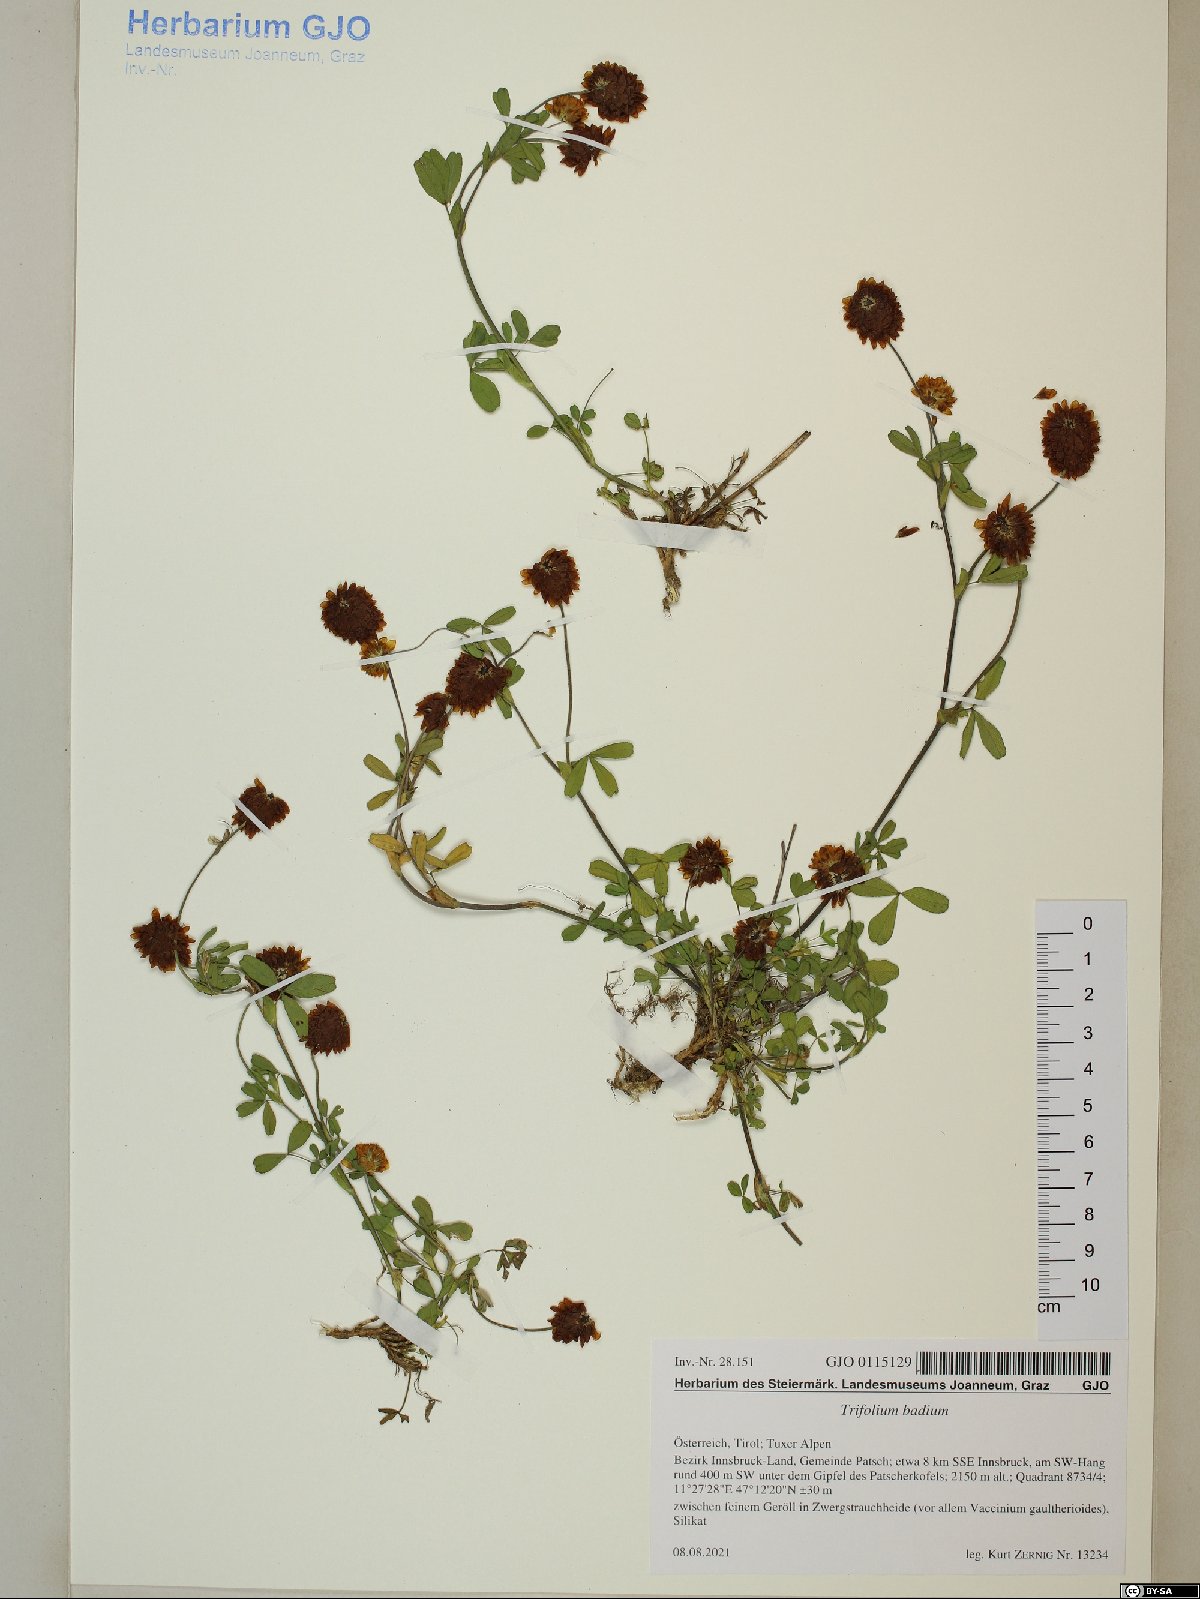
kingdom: Plantae
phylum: Tracheophyta
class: Magnoliopsida
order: Fabales
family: Fabaceae
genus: Trifolium
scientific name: Trifolium badium
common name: Brown clover
